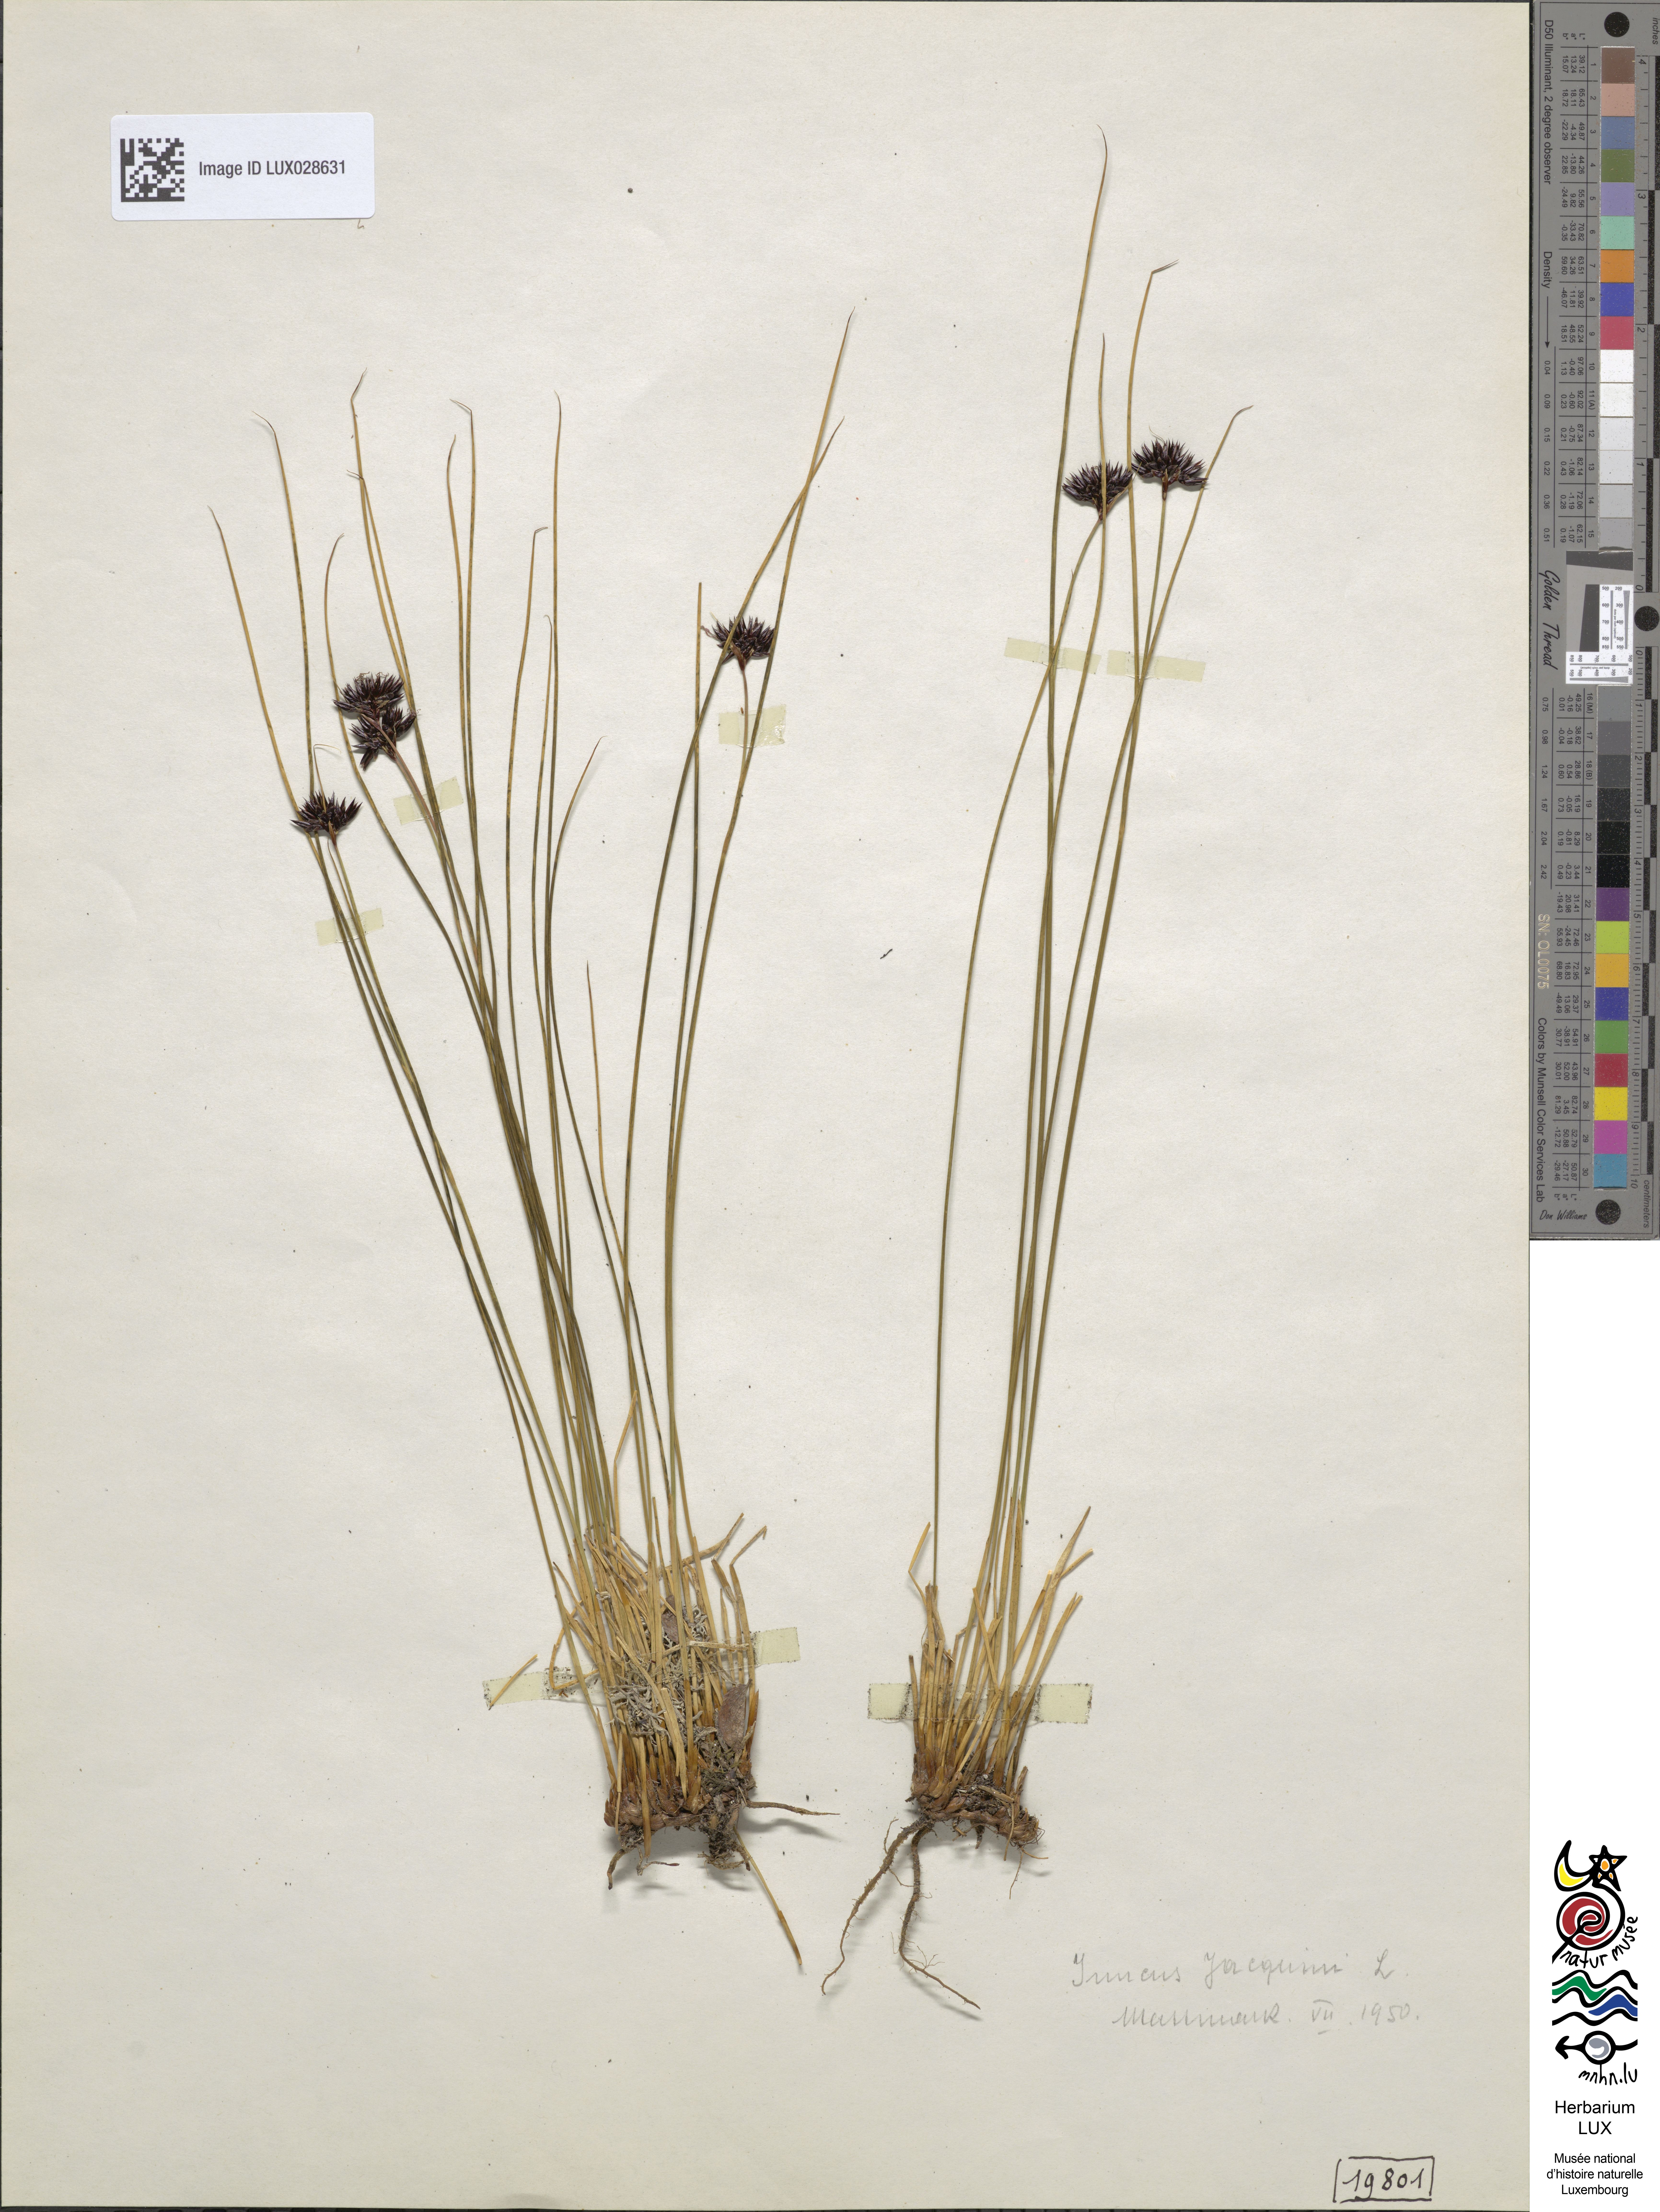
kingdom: Plantae
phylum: Tracheophyta
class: Liliopsida
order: Poales
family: Juncaceae
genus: Juncus
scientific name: Juncus jacquinii
